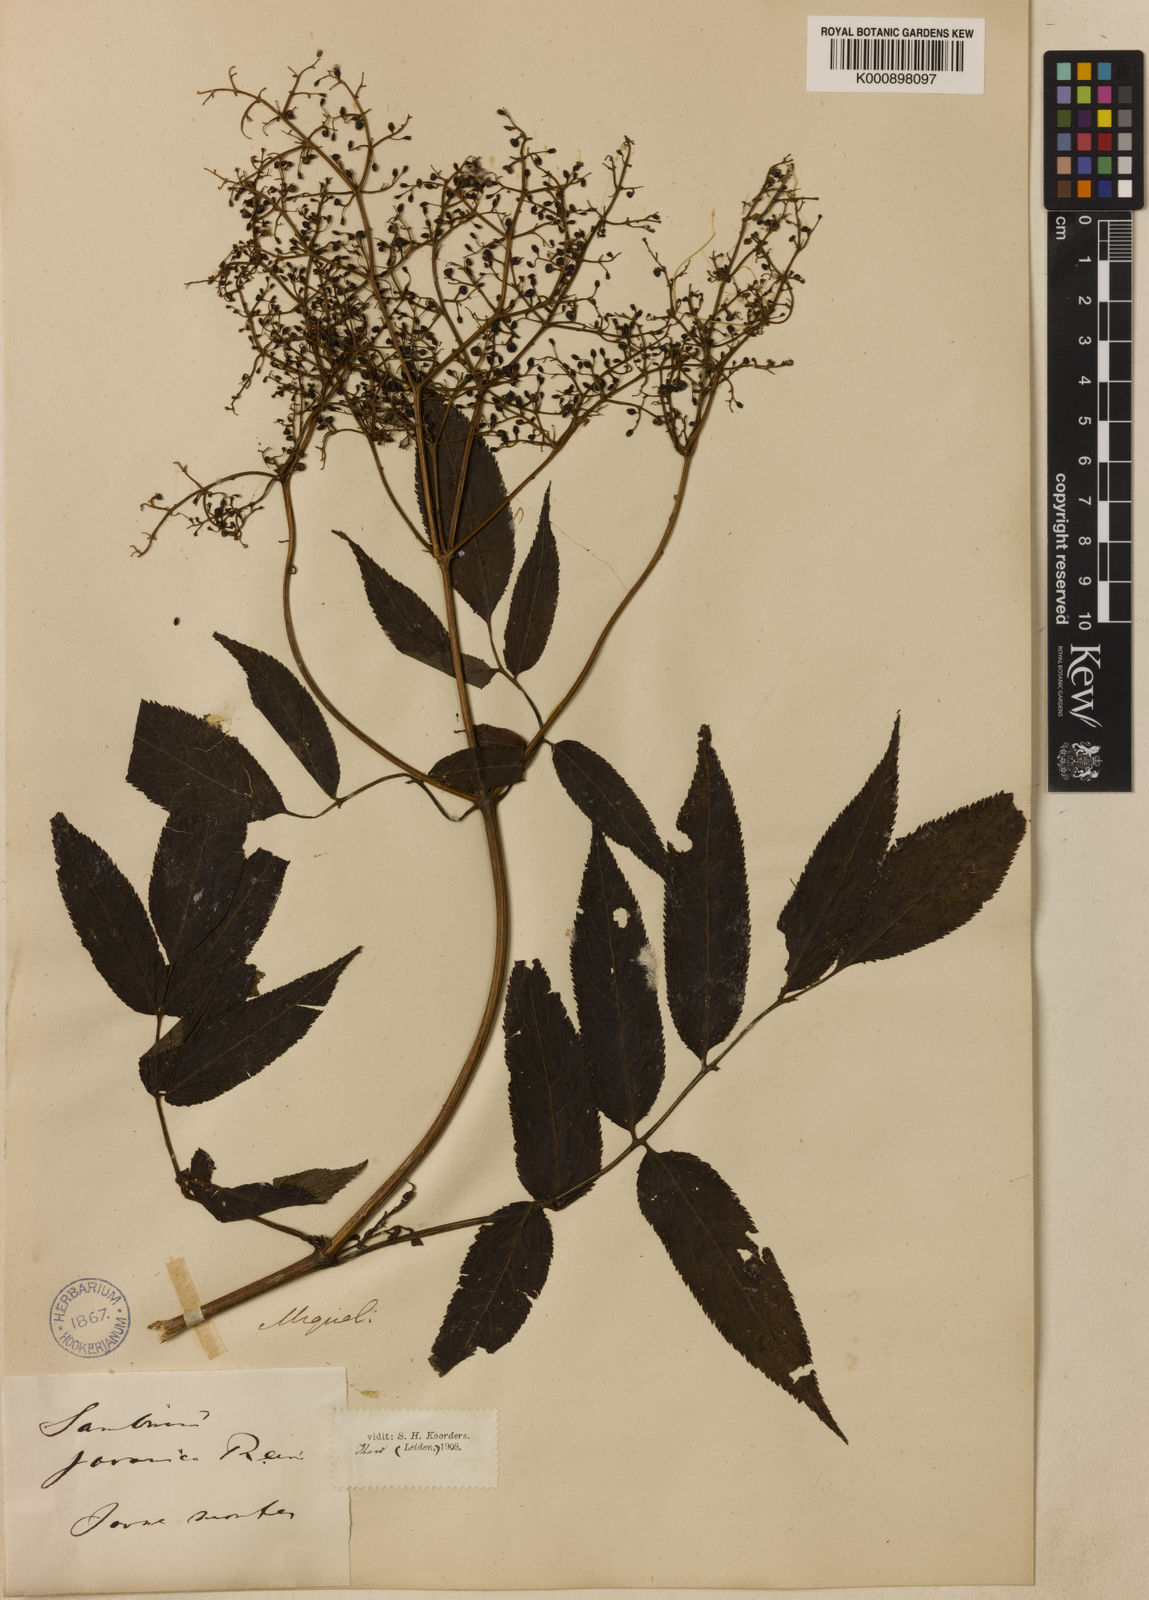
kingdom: Plantae
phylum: Tracheophyta
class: Magnoliopsida
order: Dipsacales
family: Viburnaceae
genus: Sambucus
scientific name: Sambucus
